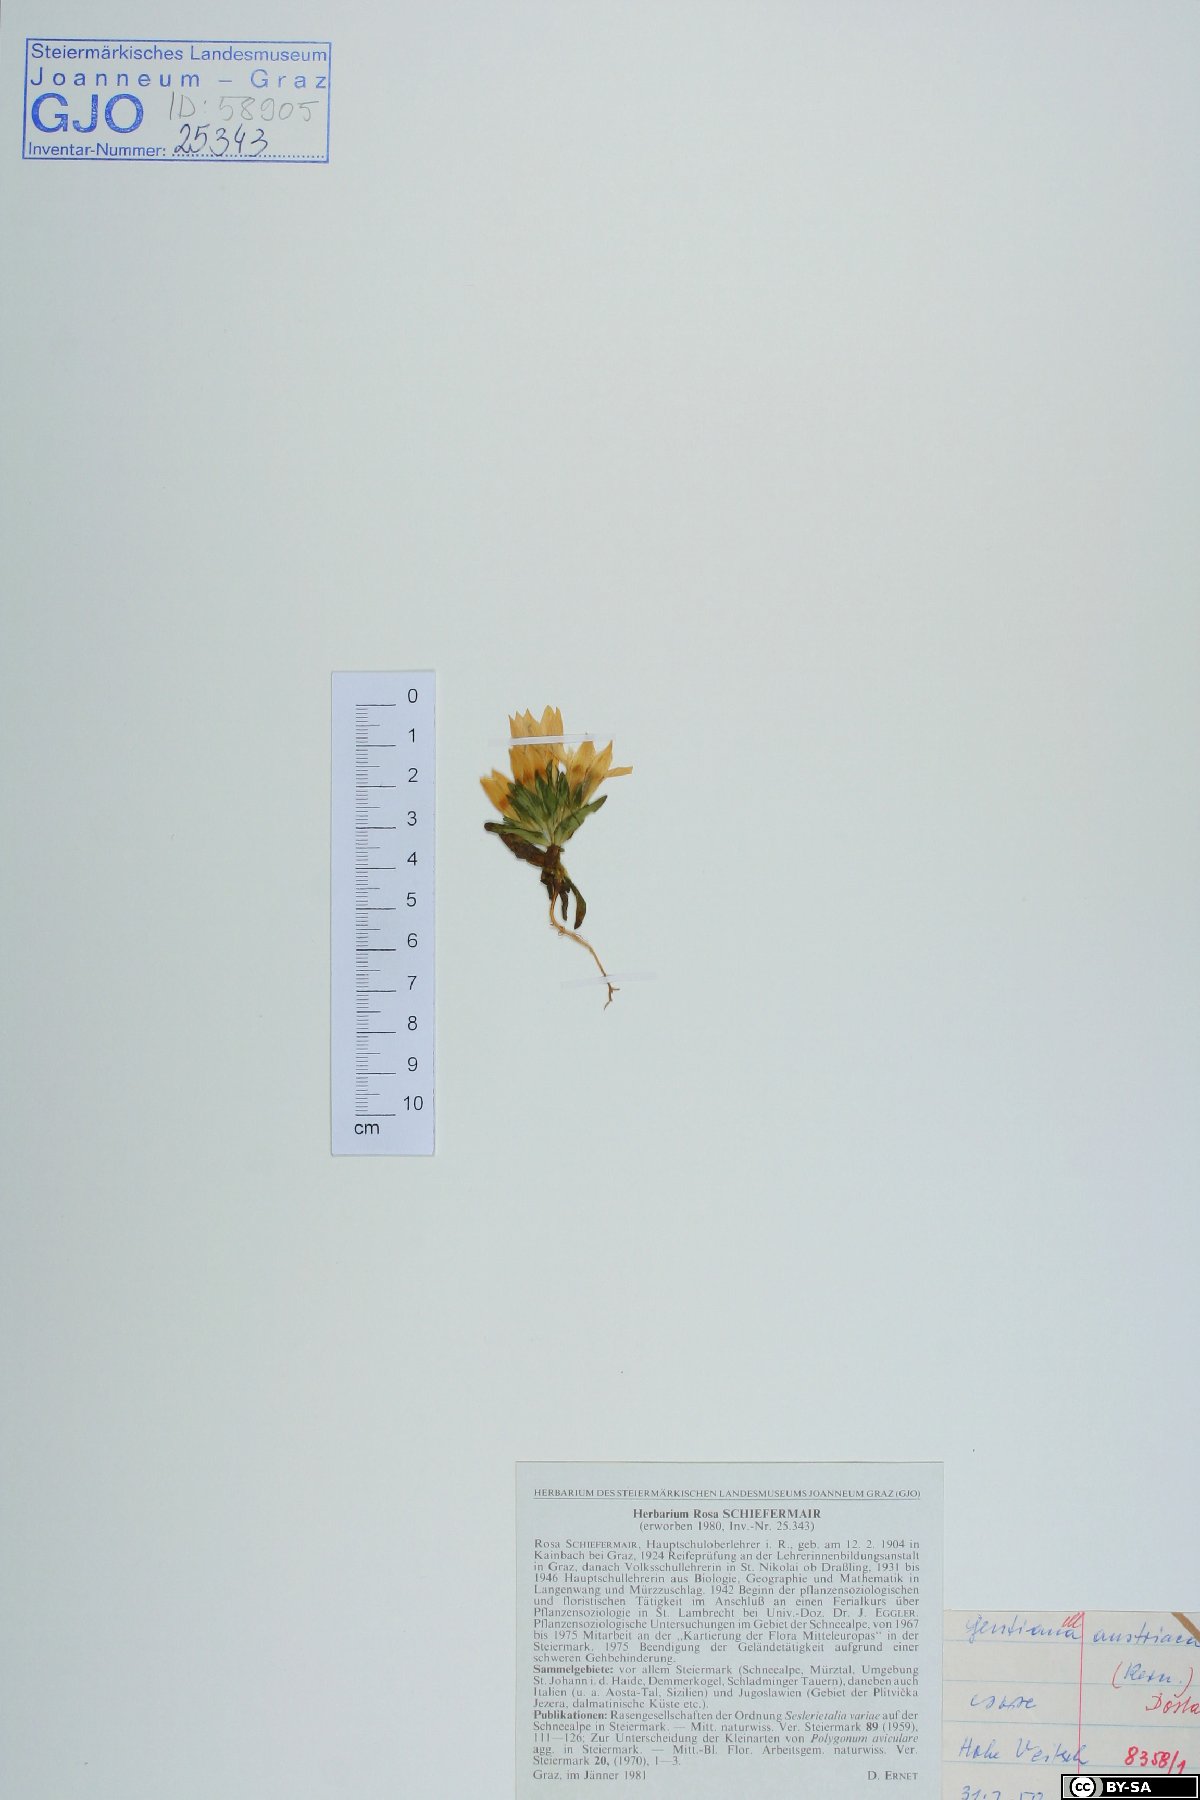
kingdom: Plantae
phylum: Tracheophyta
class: Magnoliopsida
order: Gentianales
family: Gentianaceae
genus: Gentianella
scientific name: Gentianella austriaca
